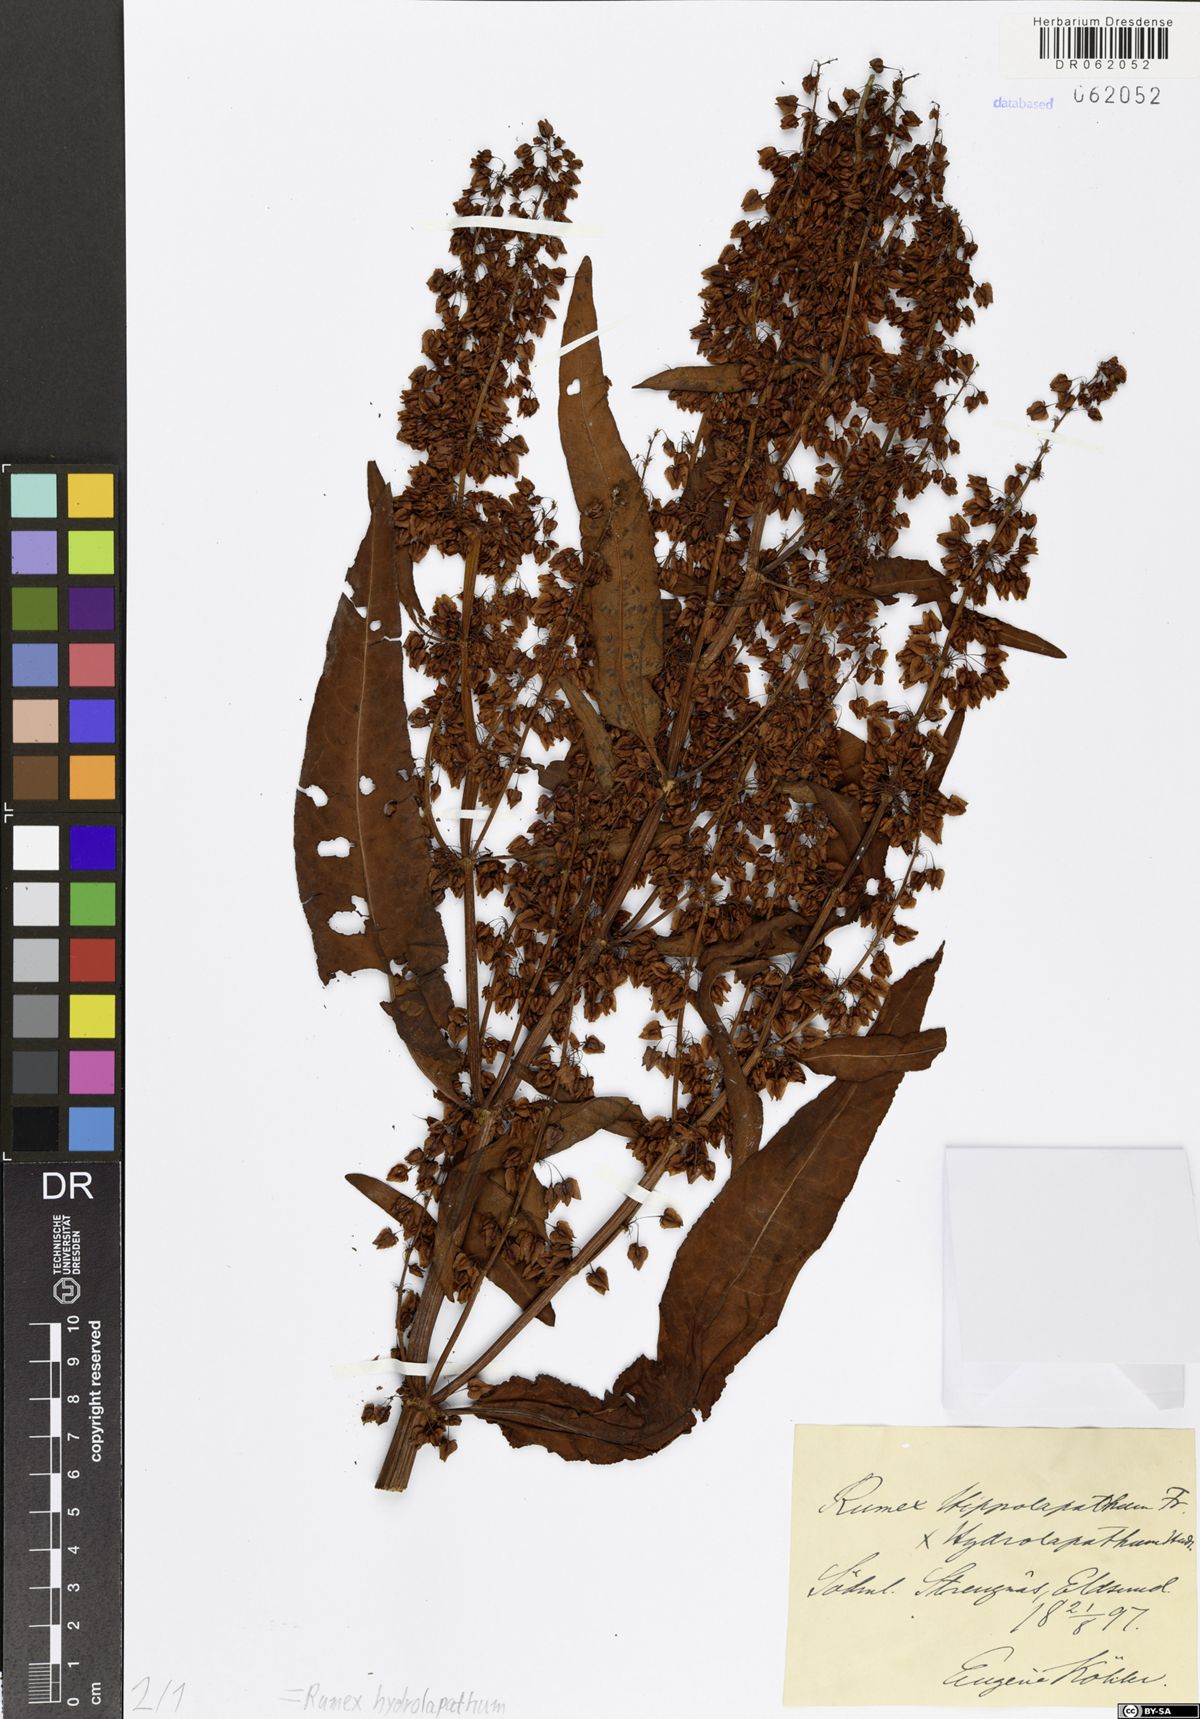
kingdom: Plantae
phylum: Tracheophyta
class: Magnoliopsida
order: Caryophyllales
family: Polygonaceae
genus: Rumex
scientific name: Rumex hydrolapathum
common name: Water dock
